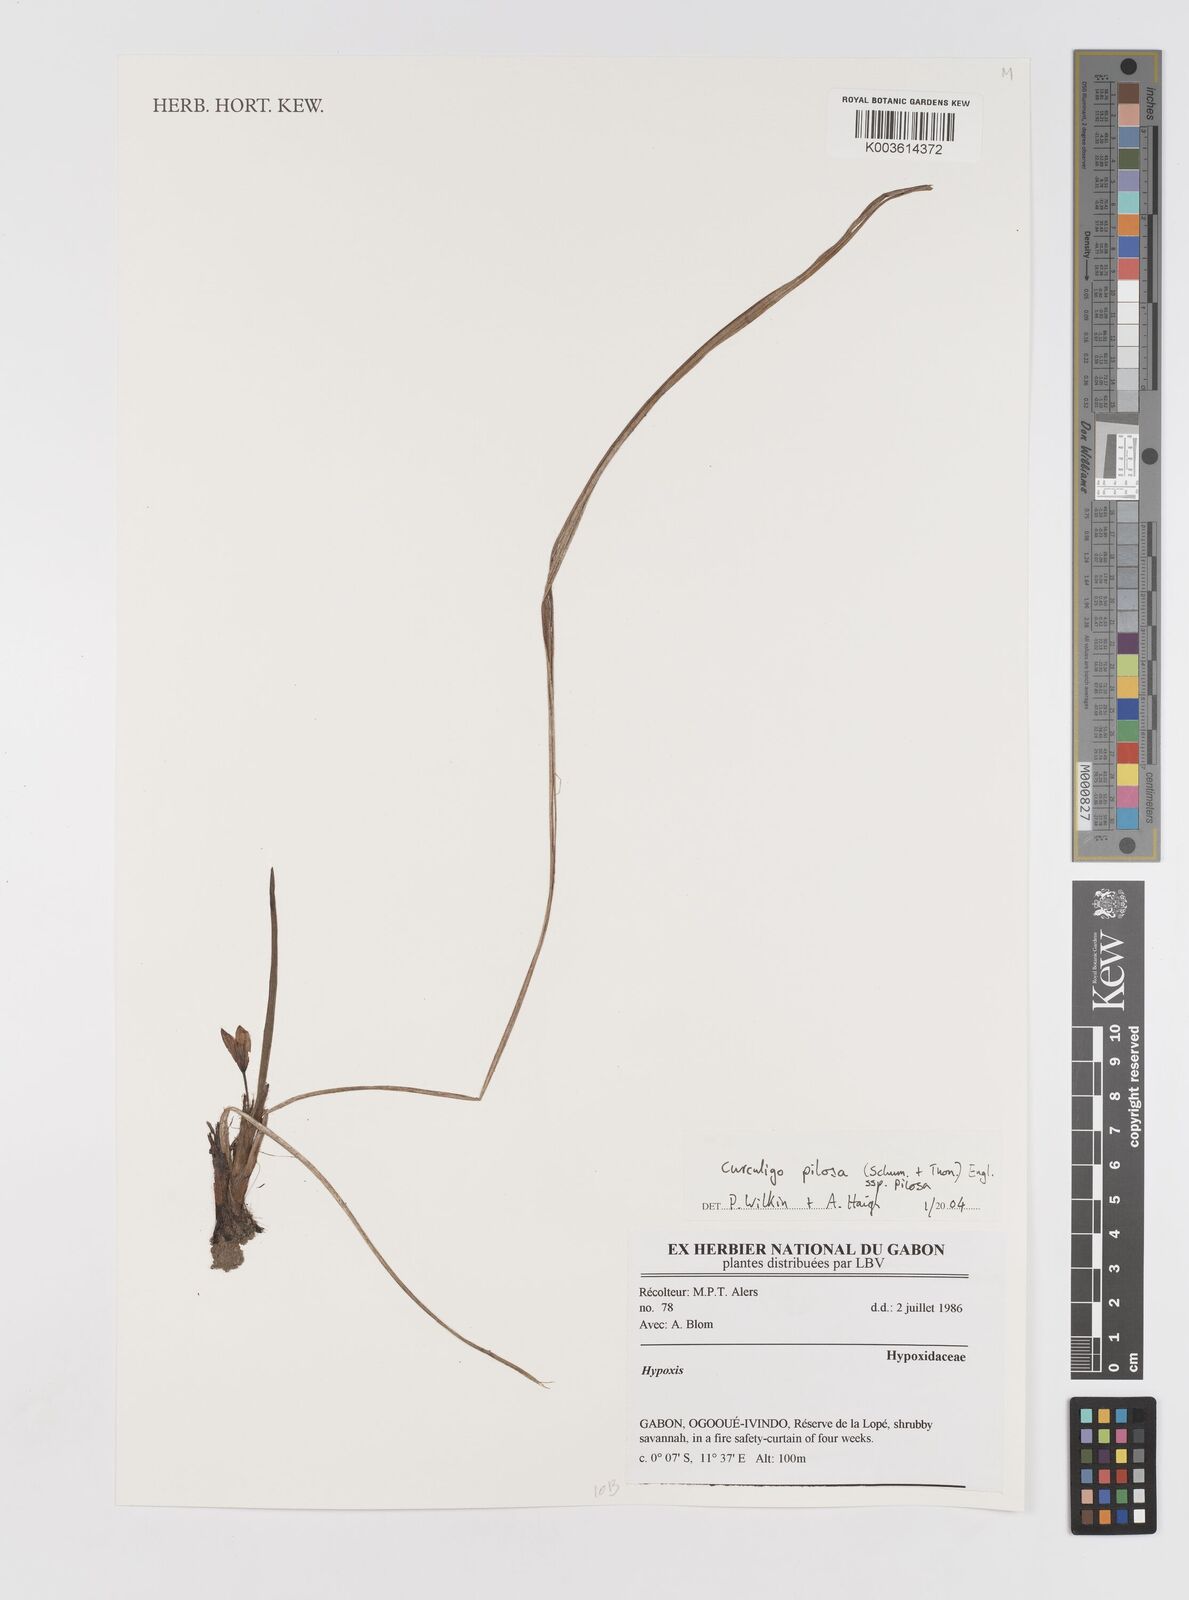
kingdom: Plantae
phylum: Tracheophyta
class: Liliopsida
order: Asparagales
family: Hypoxidaceae
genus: Curculigo
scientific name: Curculigo pilosa
